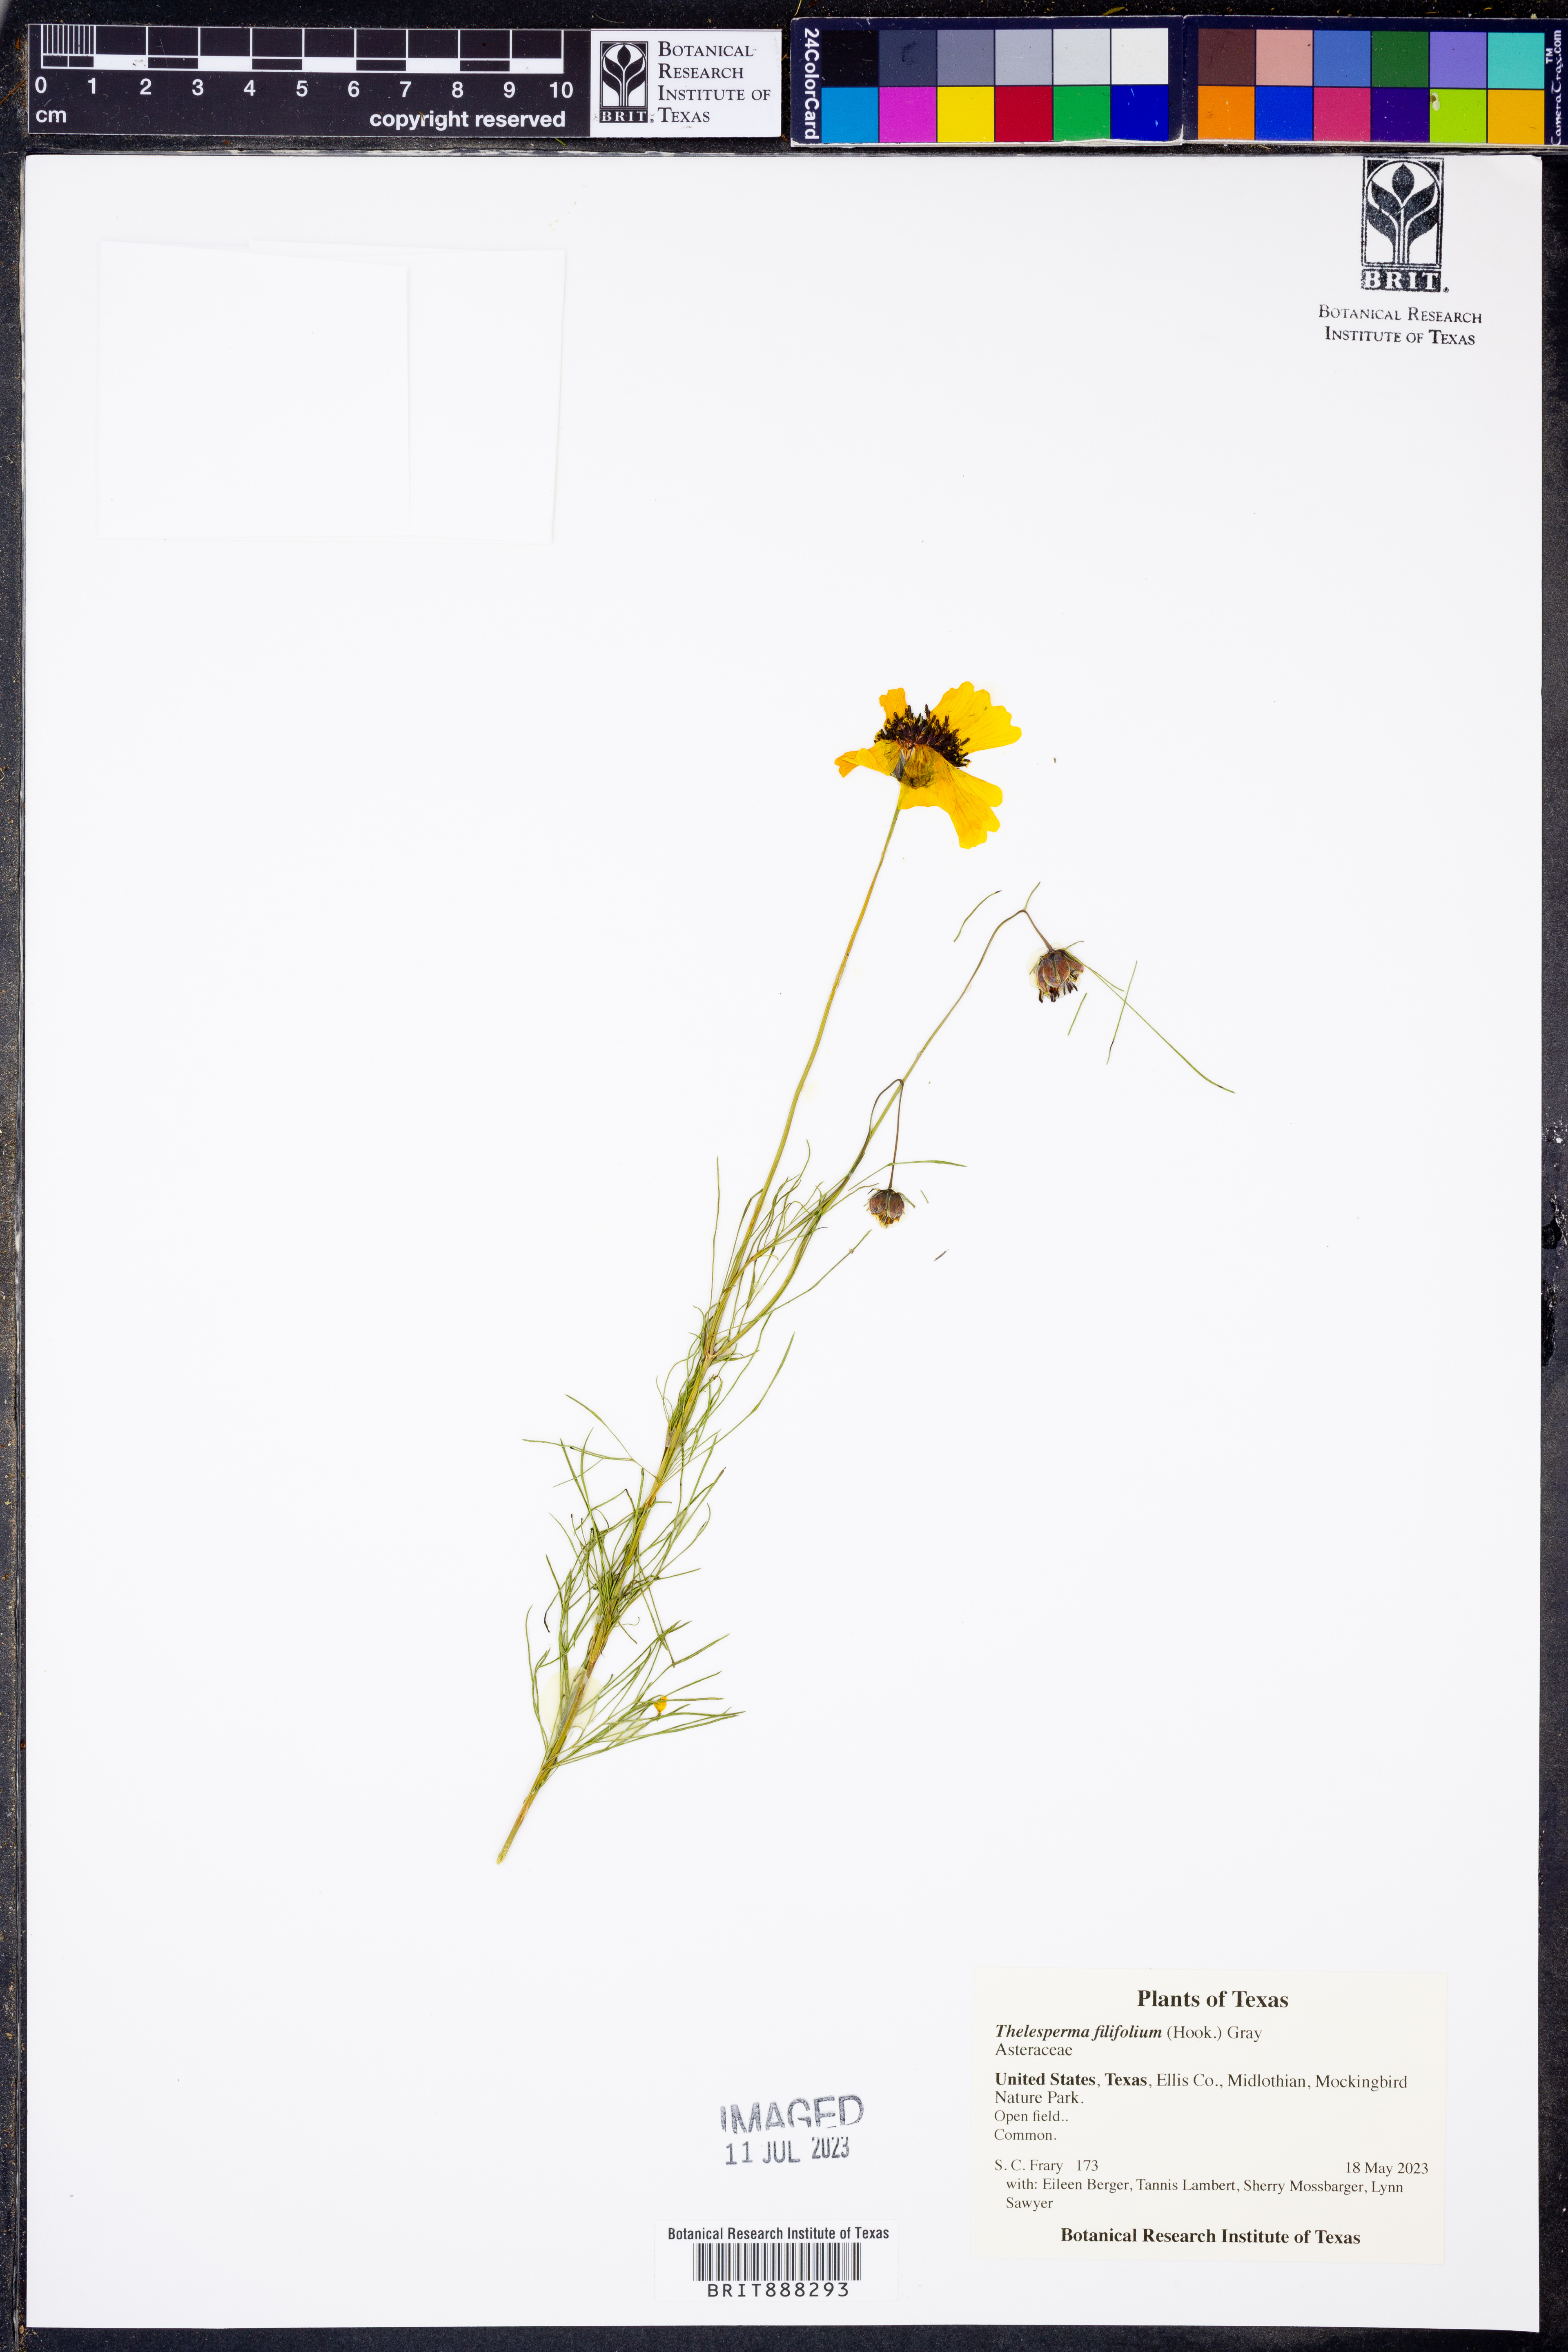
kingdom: Plantae
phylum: Tracheophyta
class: Magnoliopsida
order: Asterales
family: Asteraceae
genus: Thelesperma
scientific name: Thelesperma filifolium
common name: Stiff greenthread
